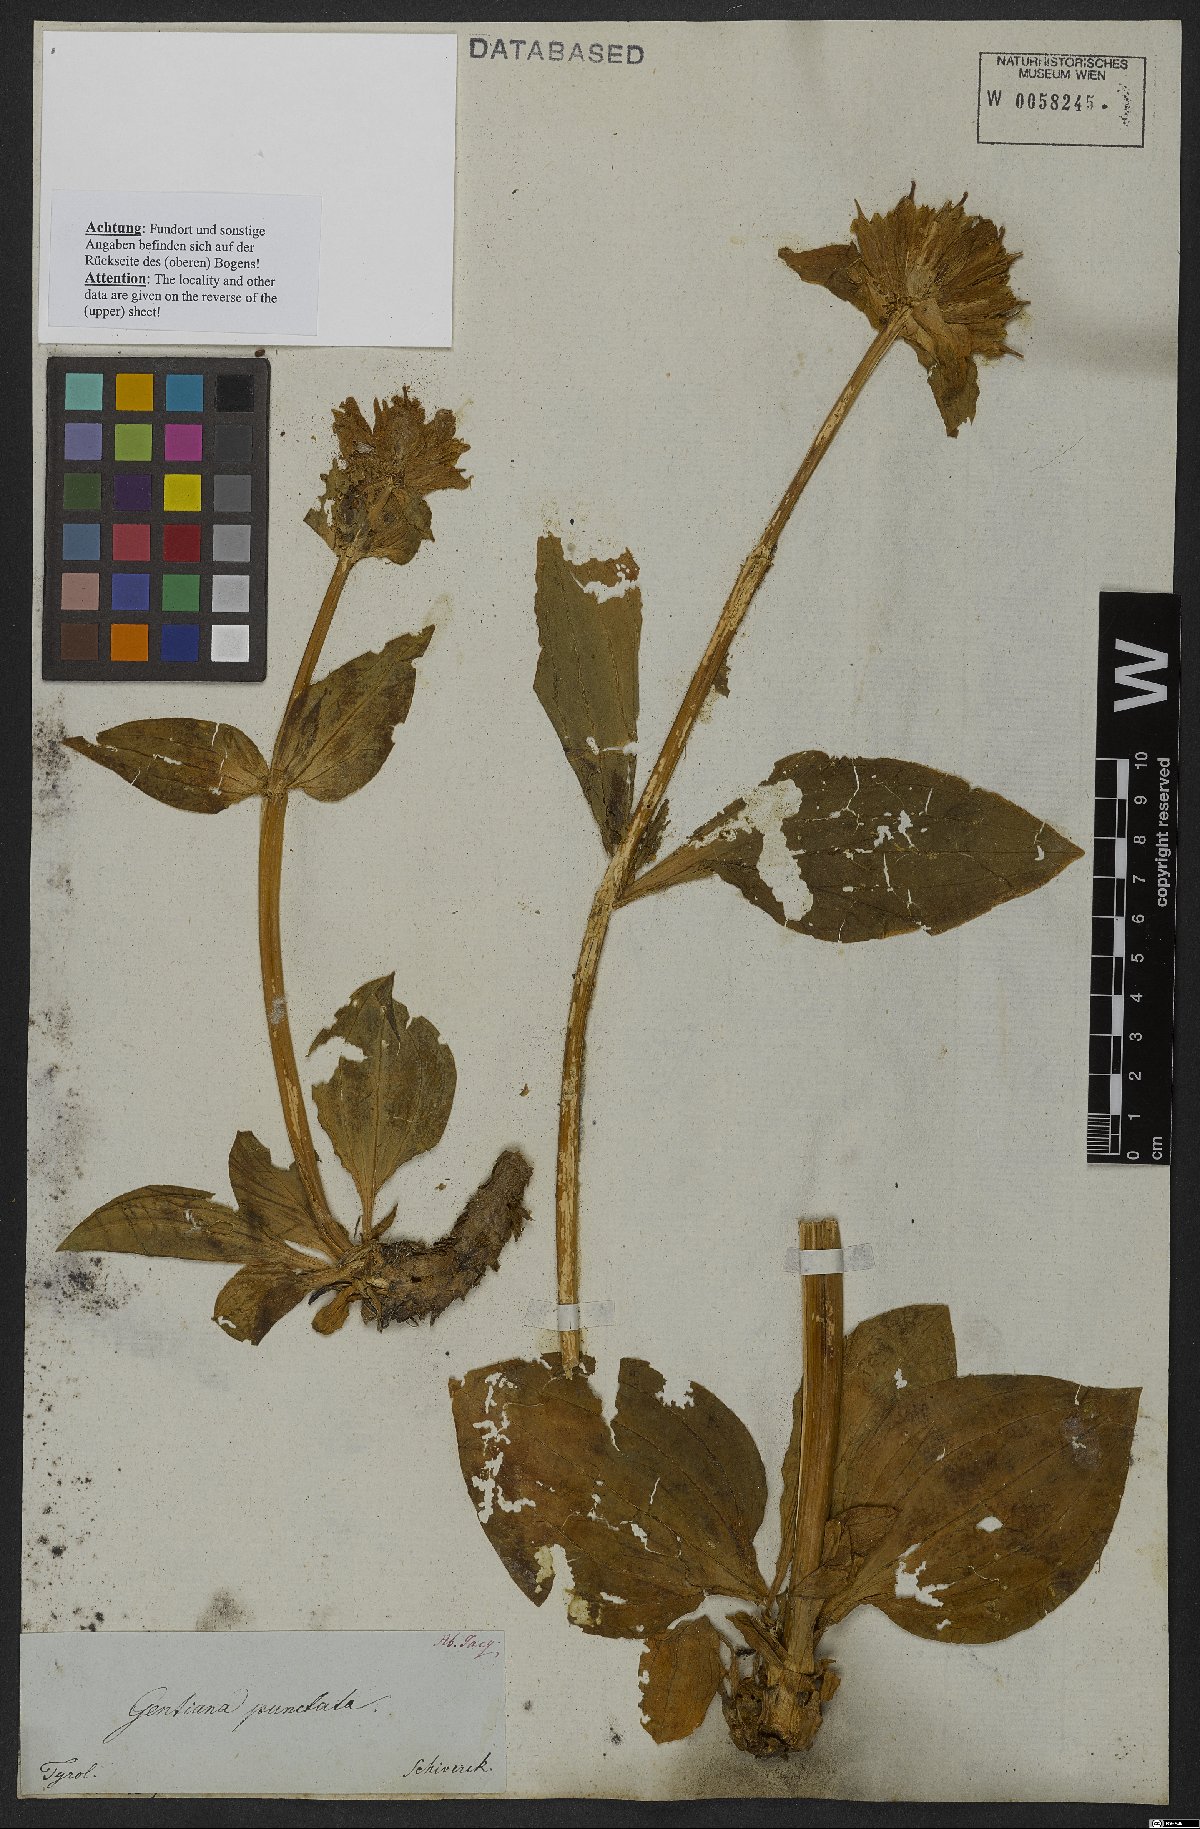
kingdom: Plantae
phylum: Tracheophyta
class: Magnoliopsida
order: Gentianales
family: Gentianaceae
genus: Gentiana
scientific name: Gentiana punctata
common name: Spotted gentian
